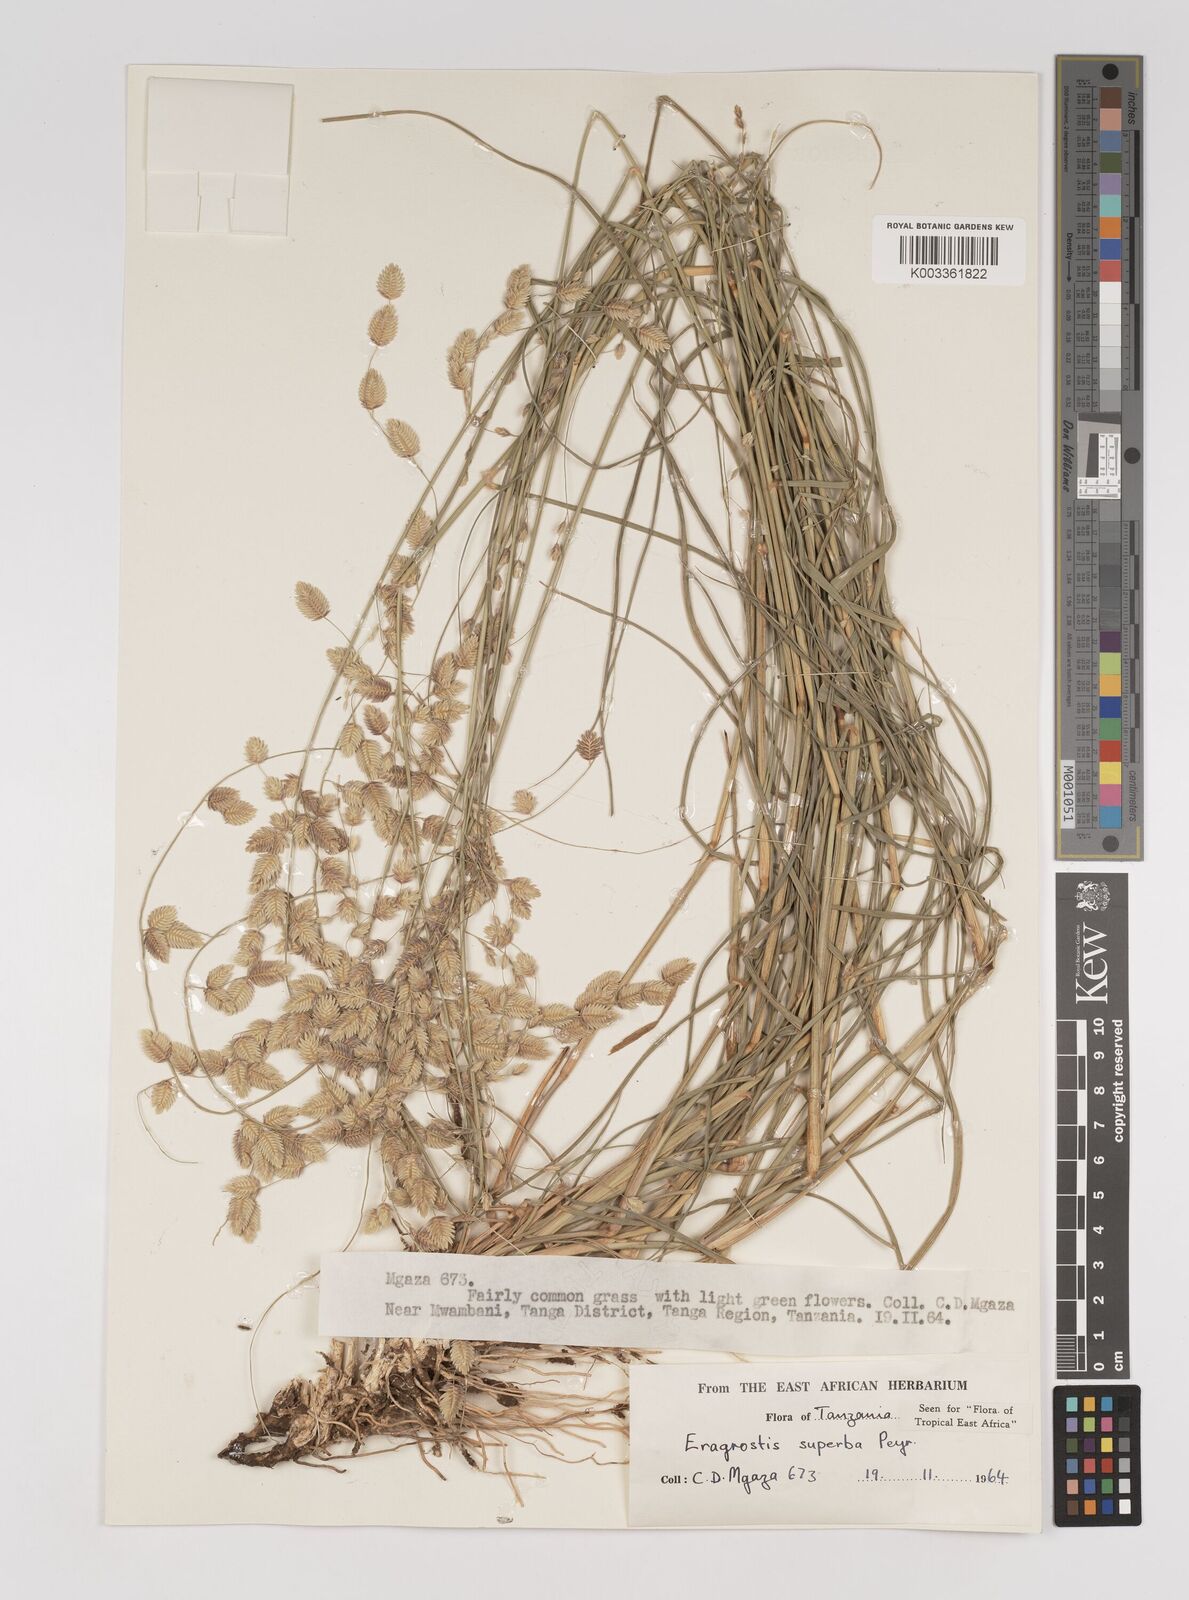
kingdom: Plantae
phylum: Tracheophyta
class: Liliopsida
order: Poales
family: Poaceae
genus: Eragrostis
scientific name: Eragrostis superba
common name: Wilman lovegrass
